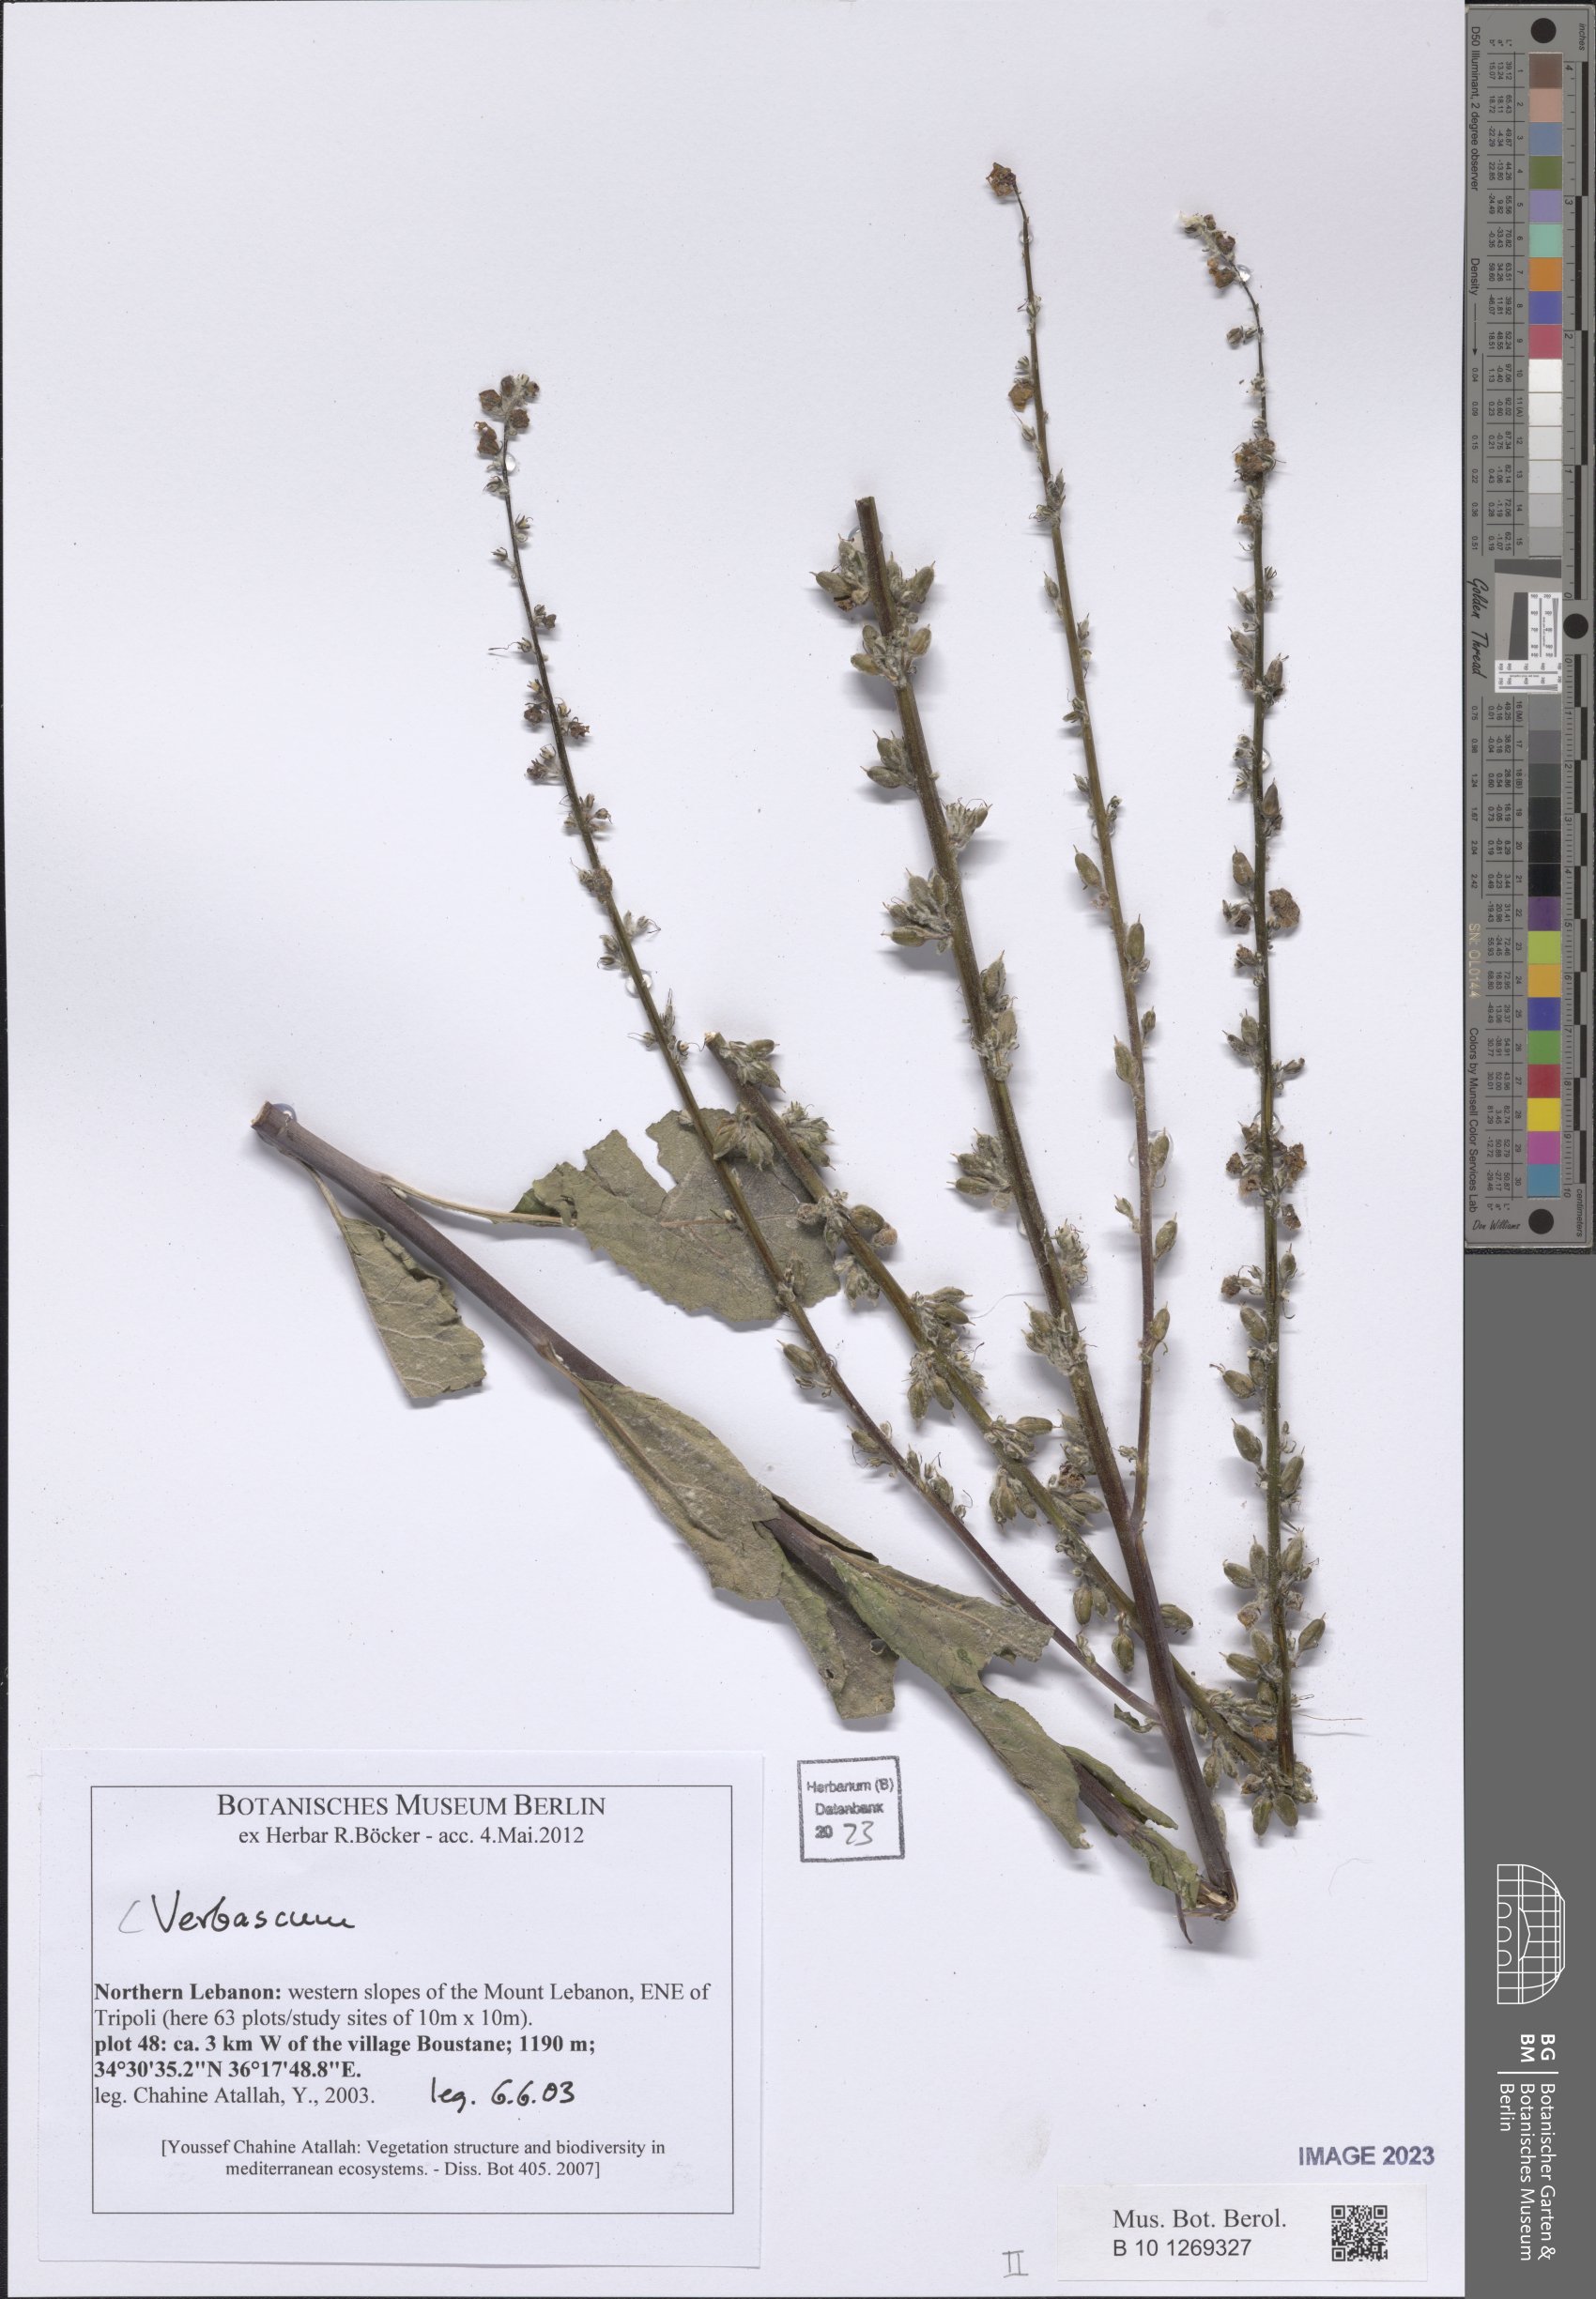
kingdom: Plantae
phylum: Tracheophyta
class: Magnoliopsida
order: Lamiales
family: Scrophulariaceae
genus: Verbascum
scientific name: Verbascum
